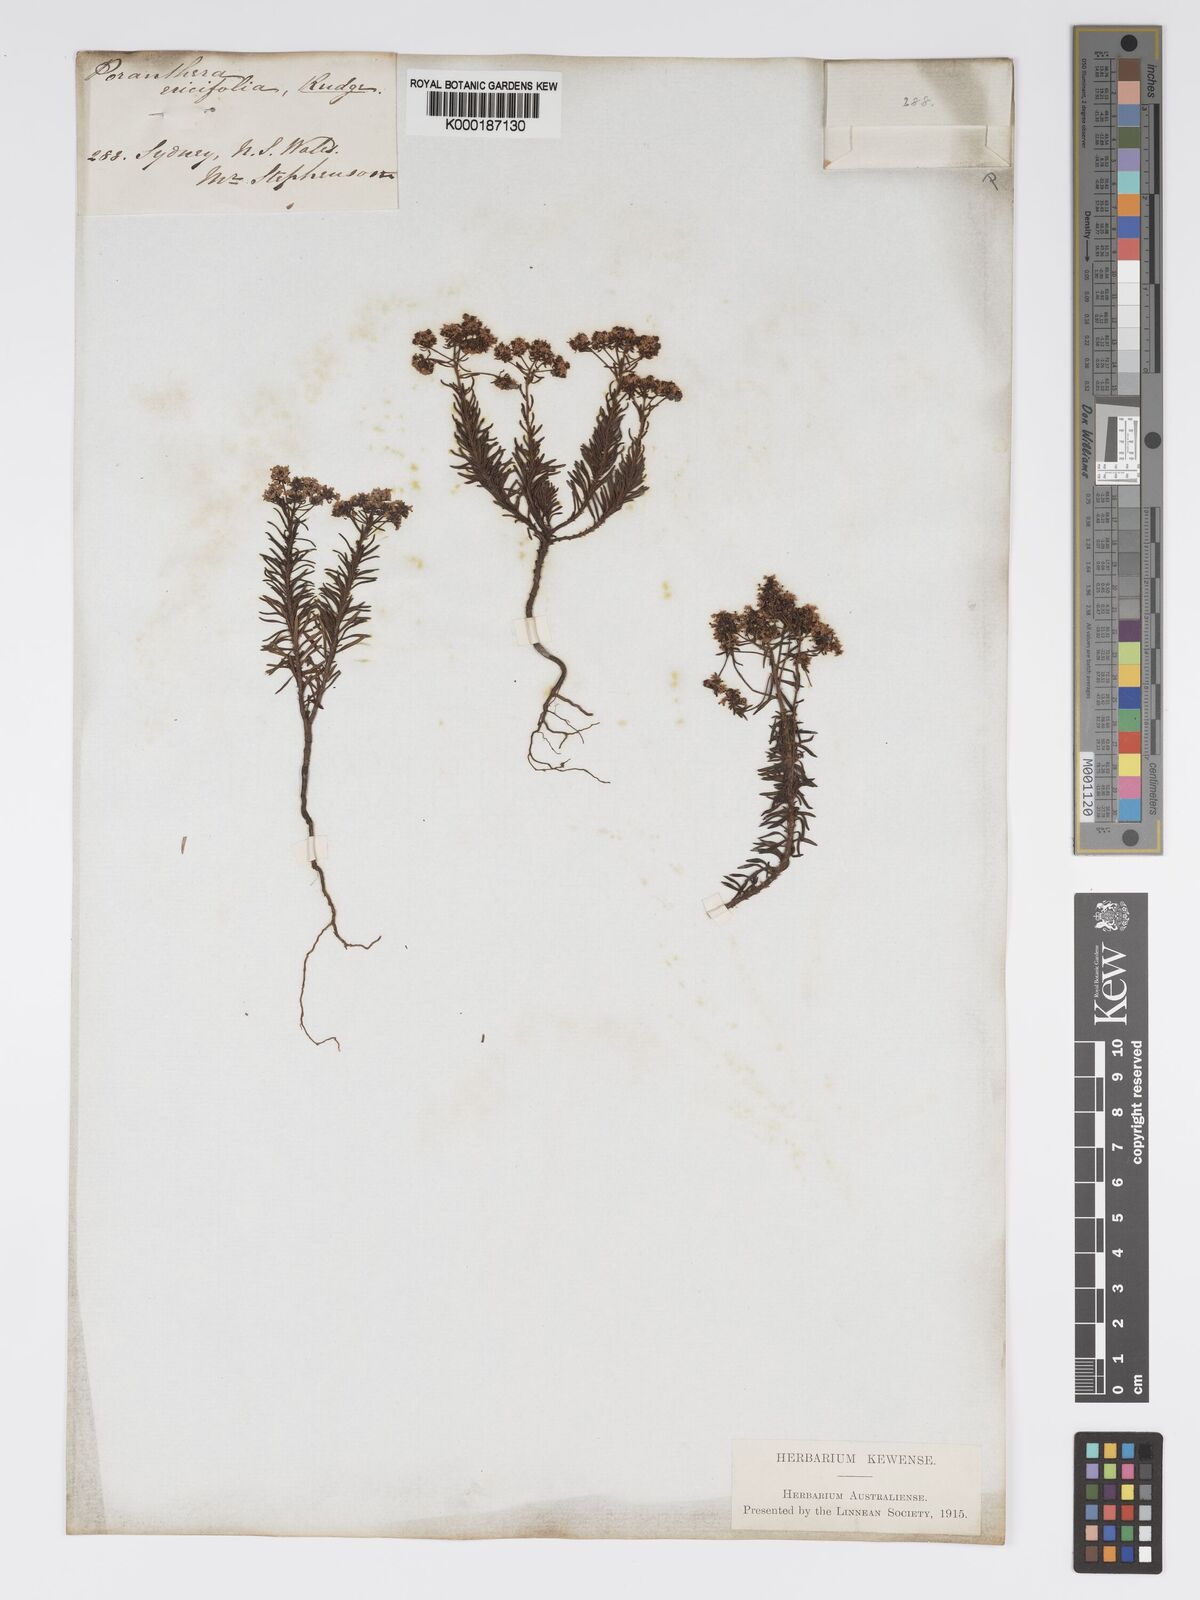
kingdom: Plantae
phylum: Tracheophyta
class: Magnoliopsida
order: Malpighiales
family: Phyllanthaceae
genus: Poranthera
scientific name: Poranthera ericifolia
